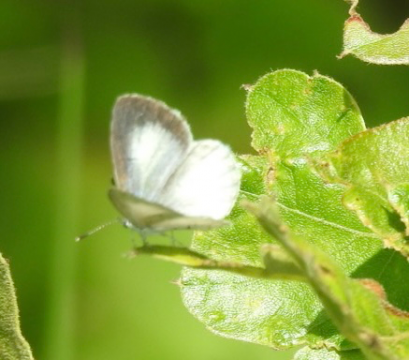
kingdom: Animalia
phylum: Arthropoda
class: Insecta
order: Lepidoptera
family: Lycaenidae
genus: Cyaniris
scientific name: Cyaniris neglecta
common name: Summer Azure
